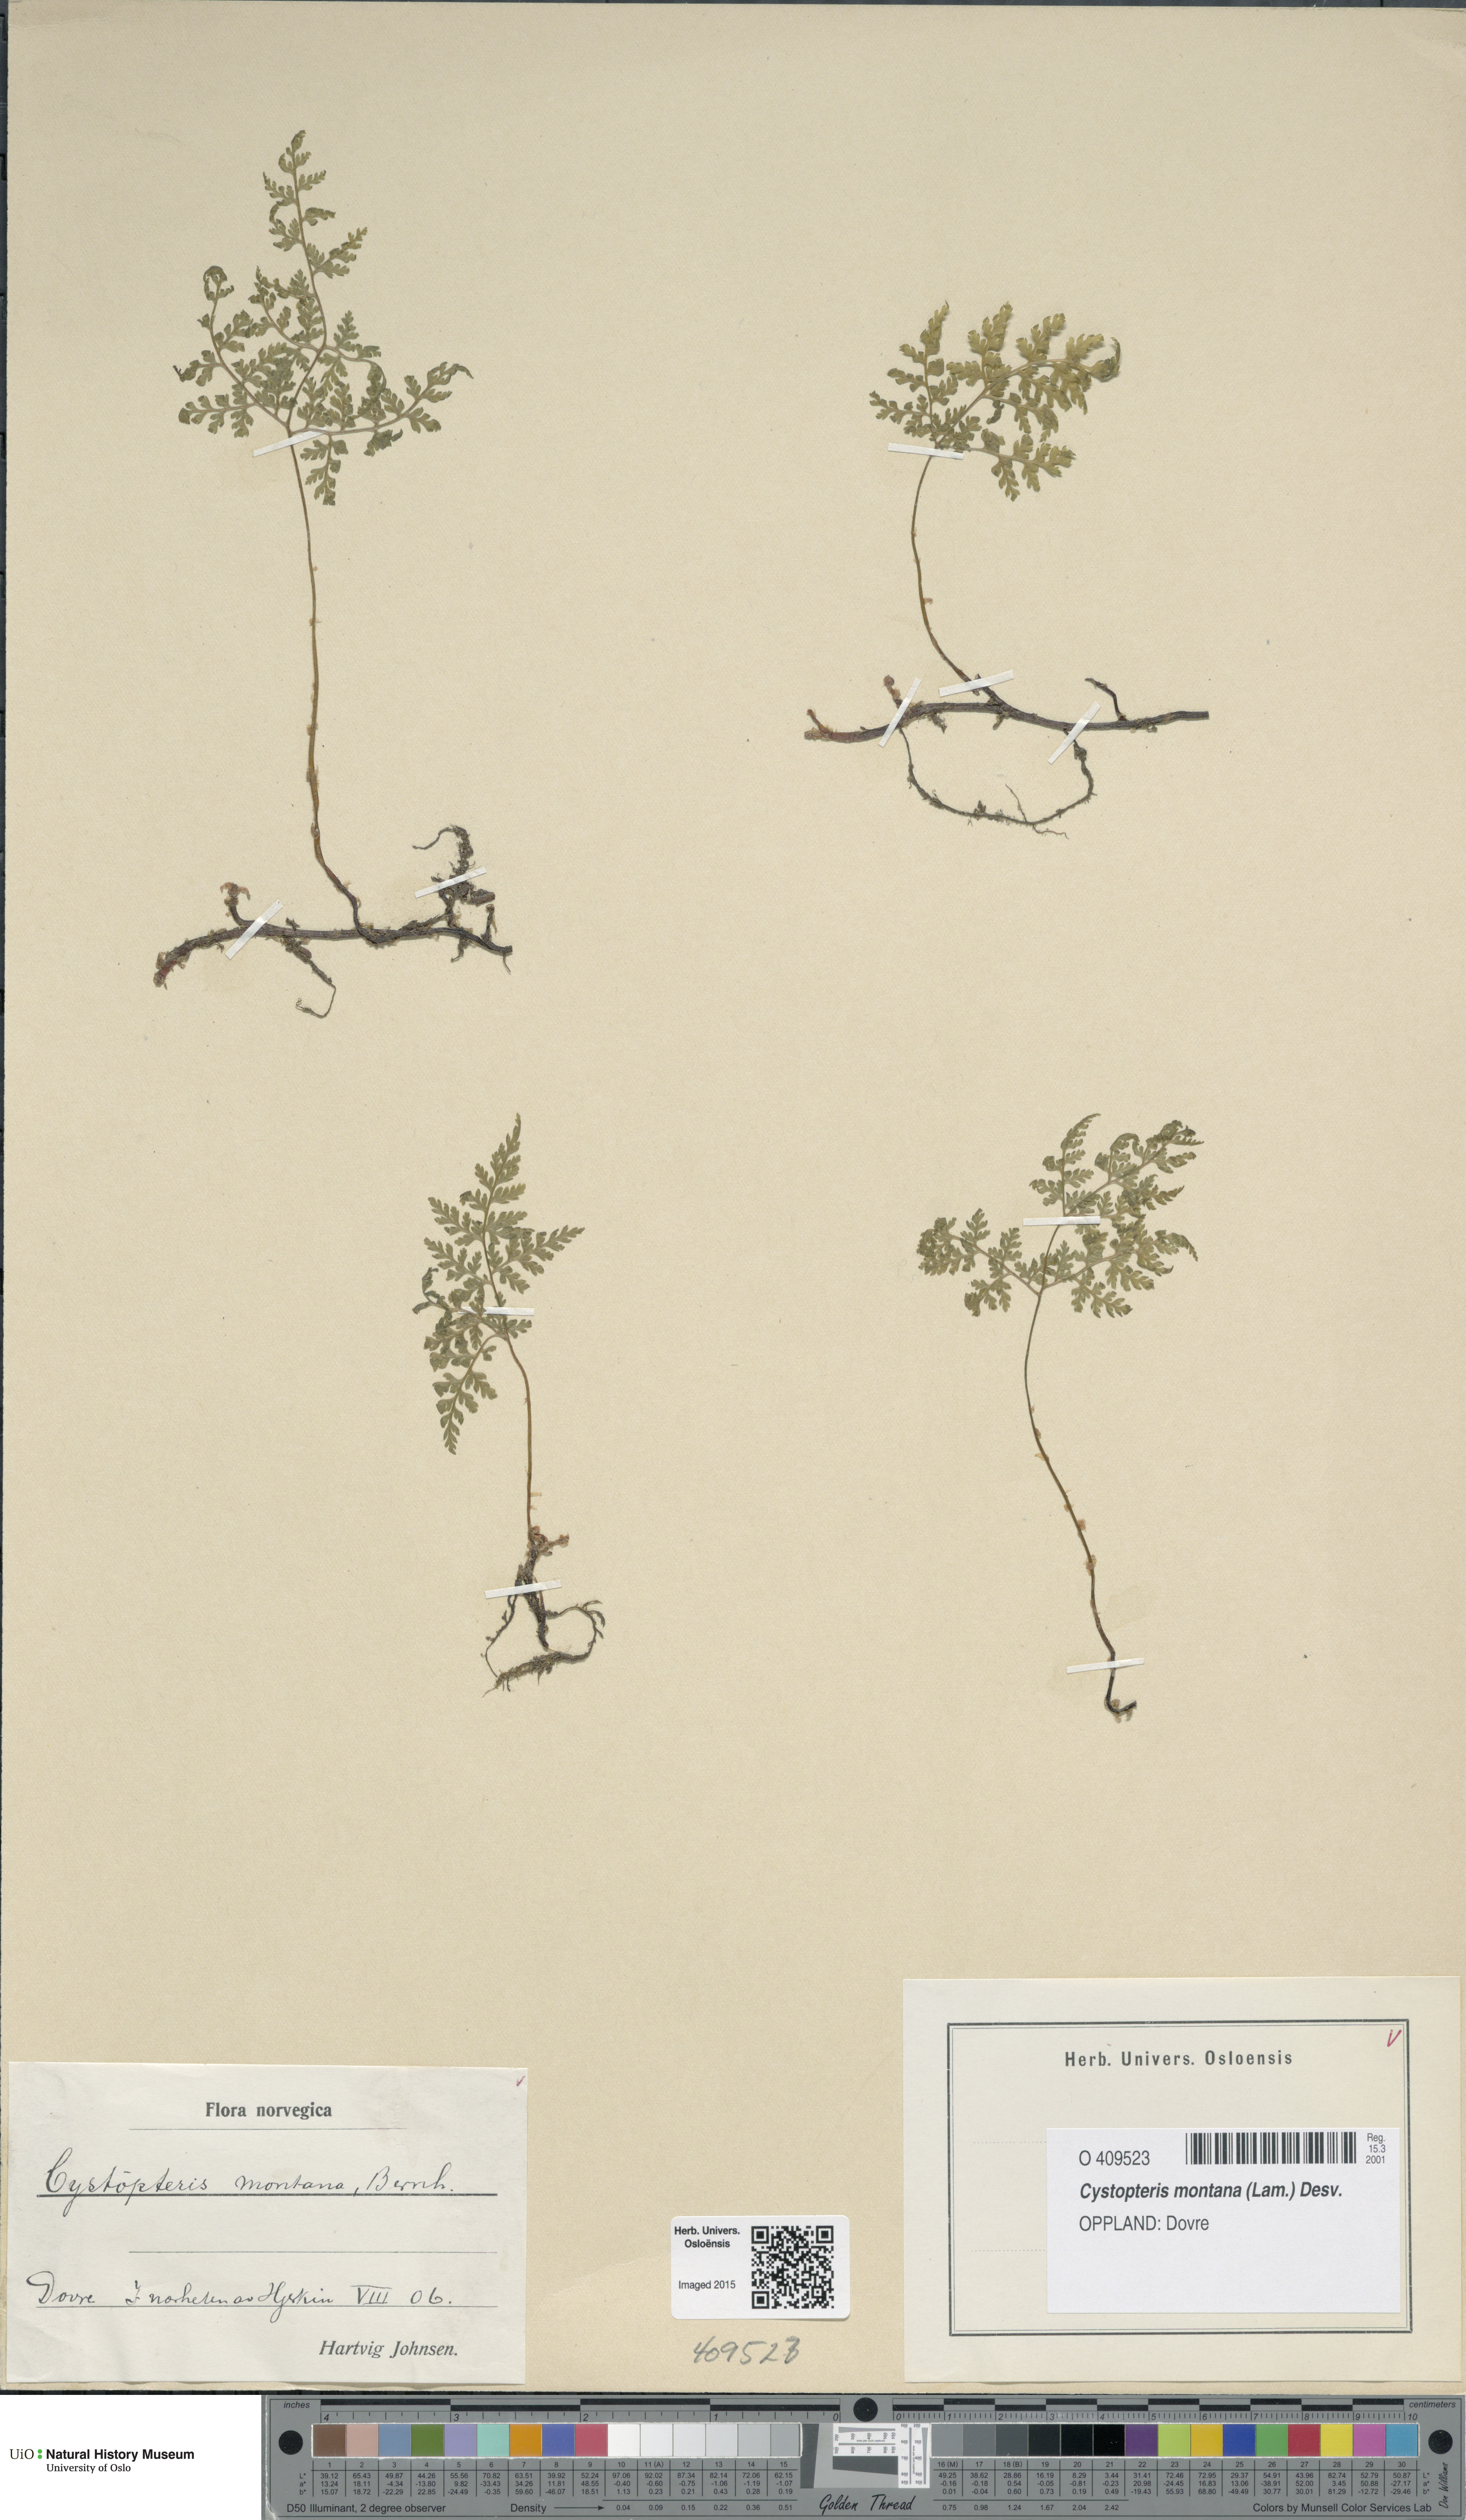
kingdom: Plantae
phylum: Tracheophyta
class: Polypodiopsida
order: Polypodiales
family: Cystopteridaceae
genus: Cystopteris
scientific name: Cystopteris montana
